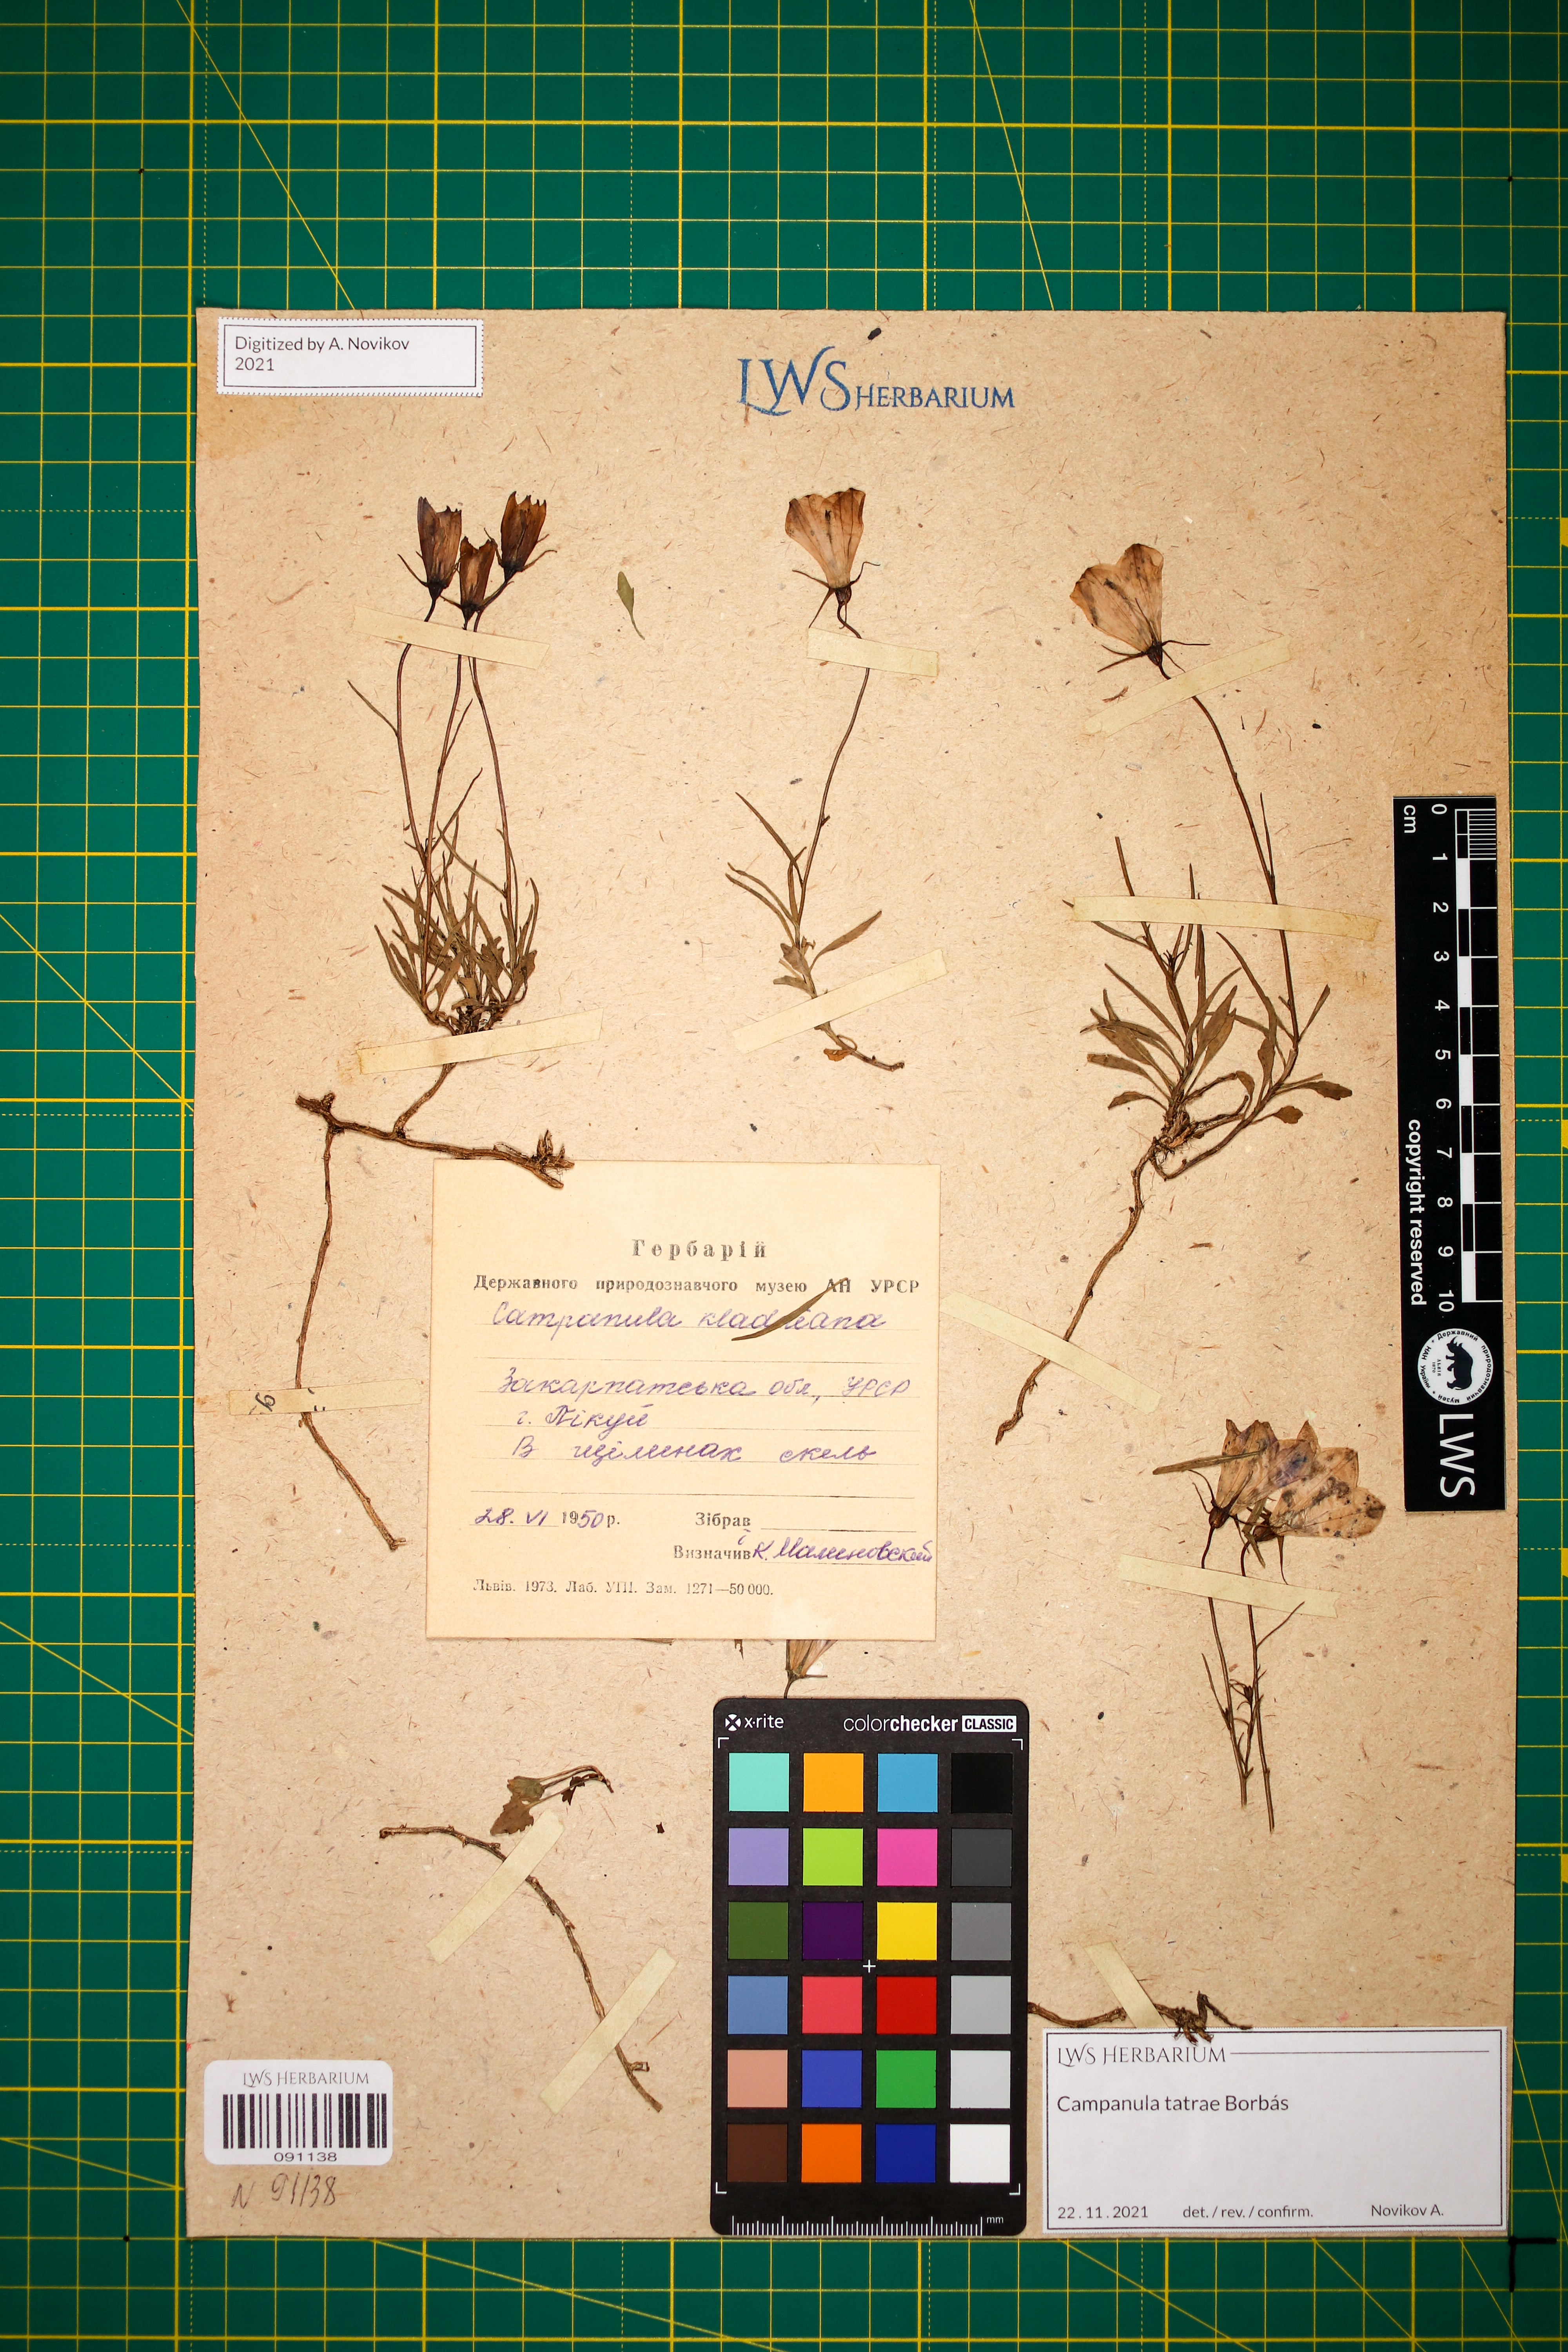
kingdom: Plantae
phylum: Tracheophyta
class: Magnoliopsida
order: Asterales
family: Campanulaceae
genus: Campanula
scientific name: Campanula kladniana
